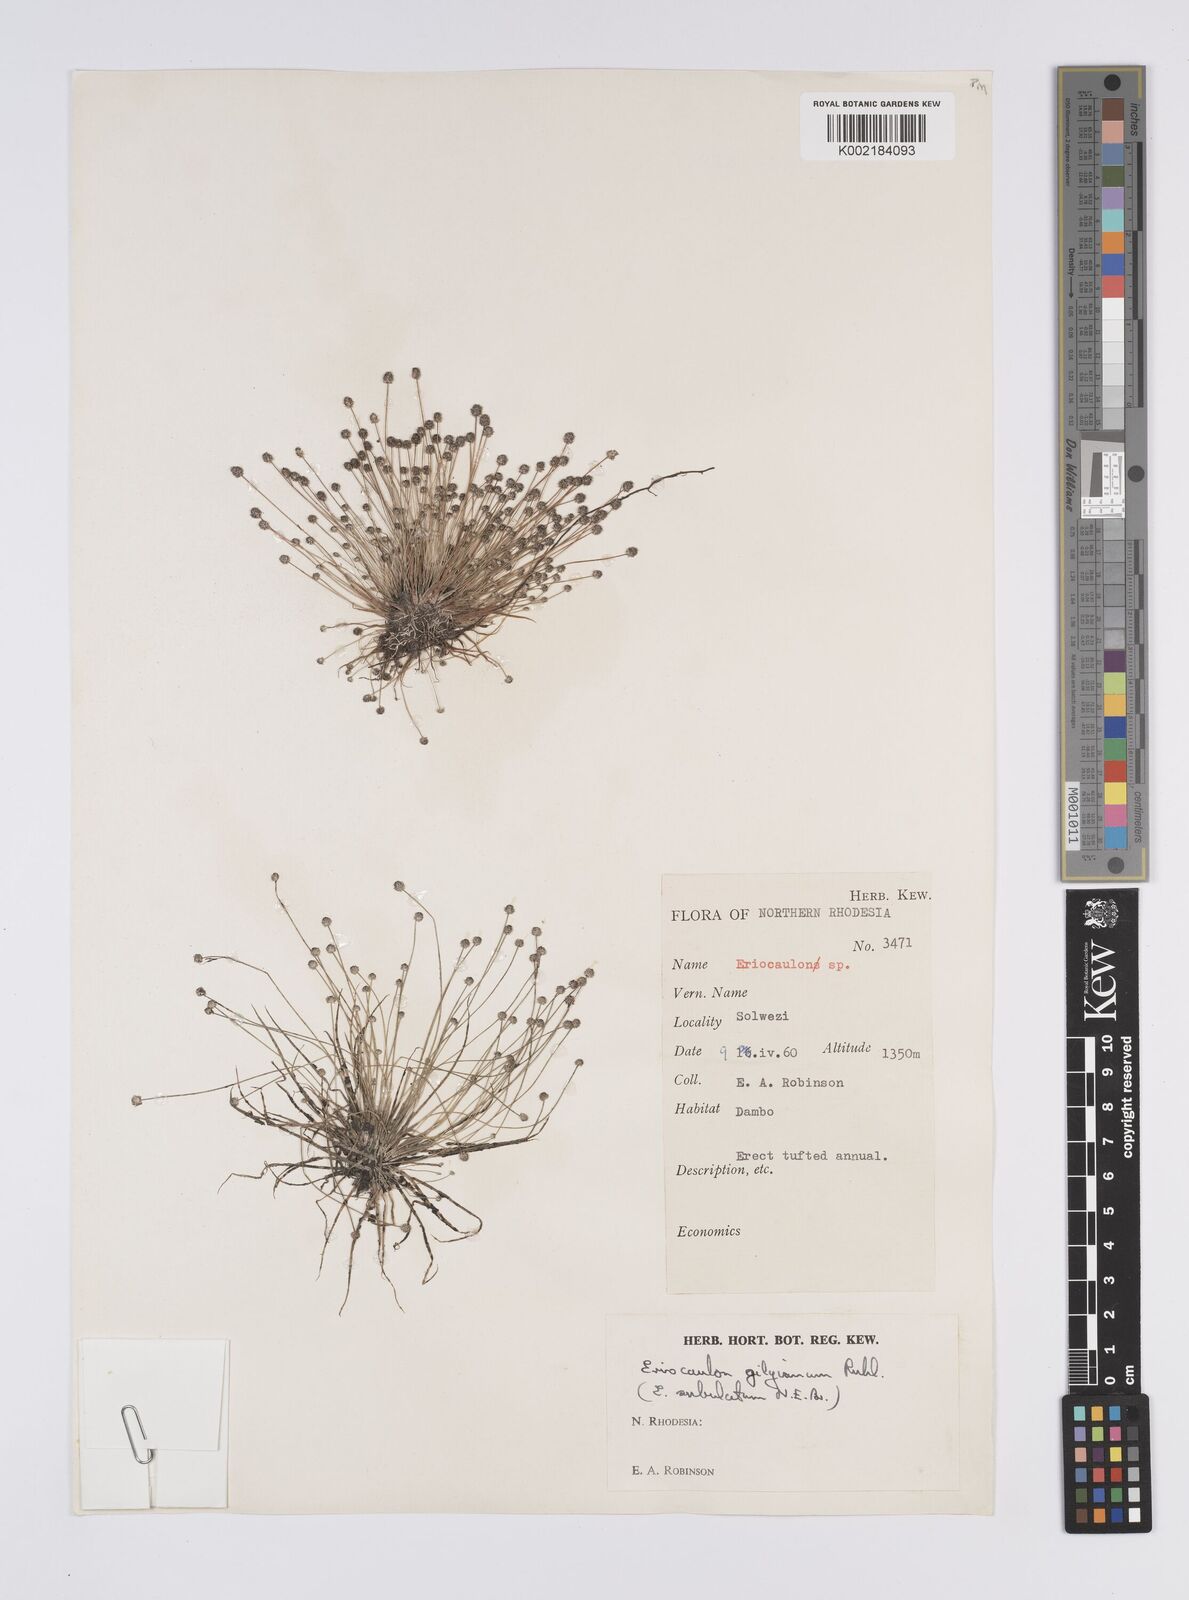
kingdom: Plantae
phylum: Tracheophyta
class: Liliopsida
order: Poales
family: Eriocaulaceae
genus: Eriocaulon
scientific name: Eriocaulon abyssinicum
